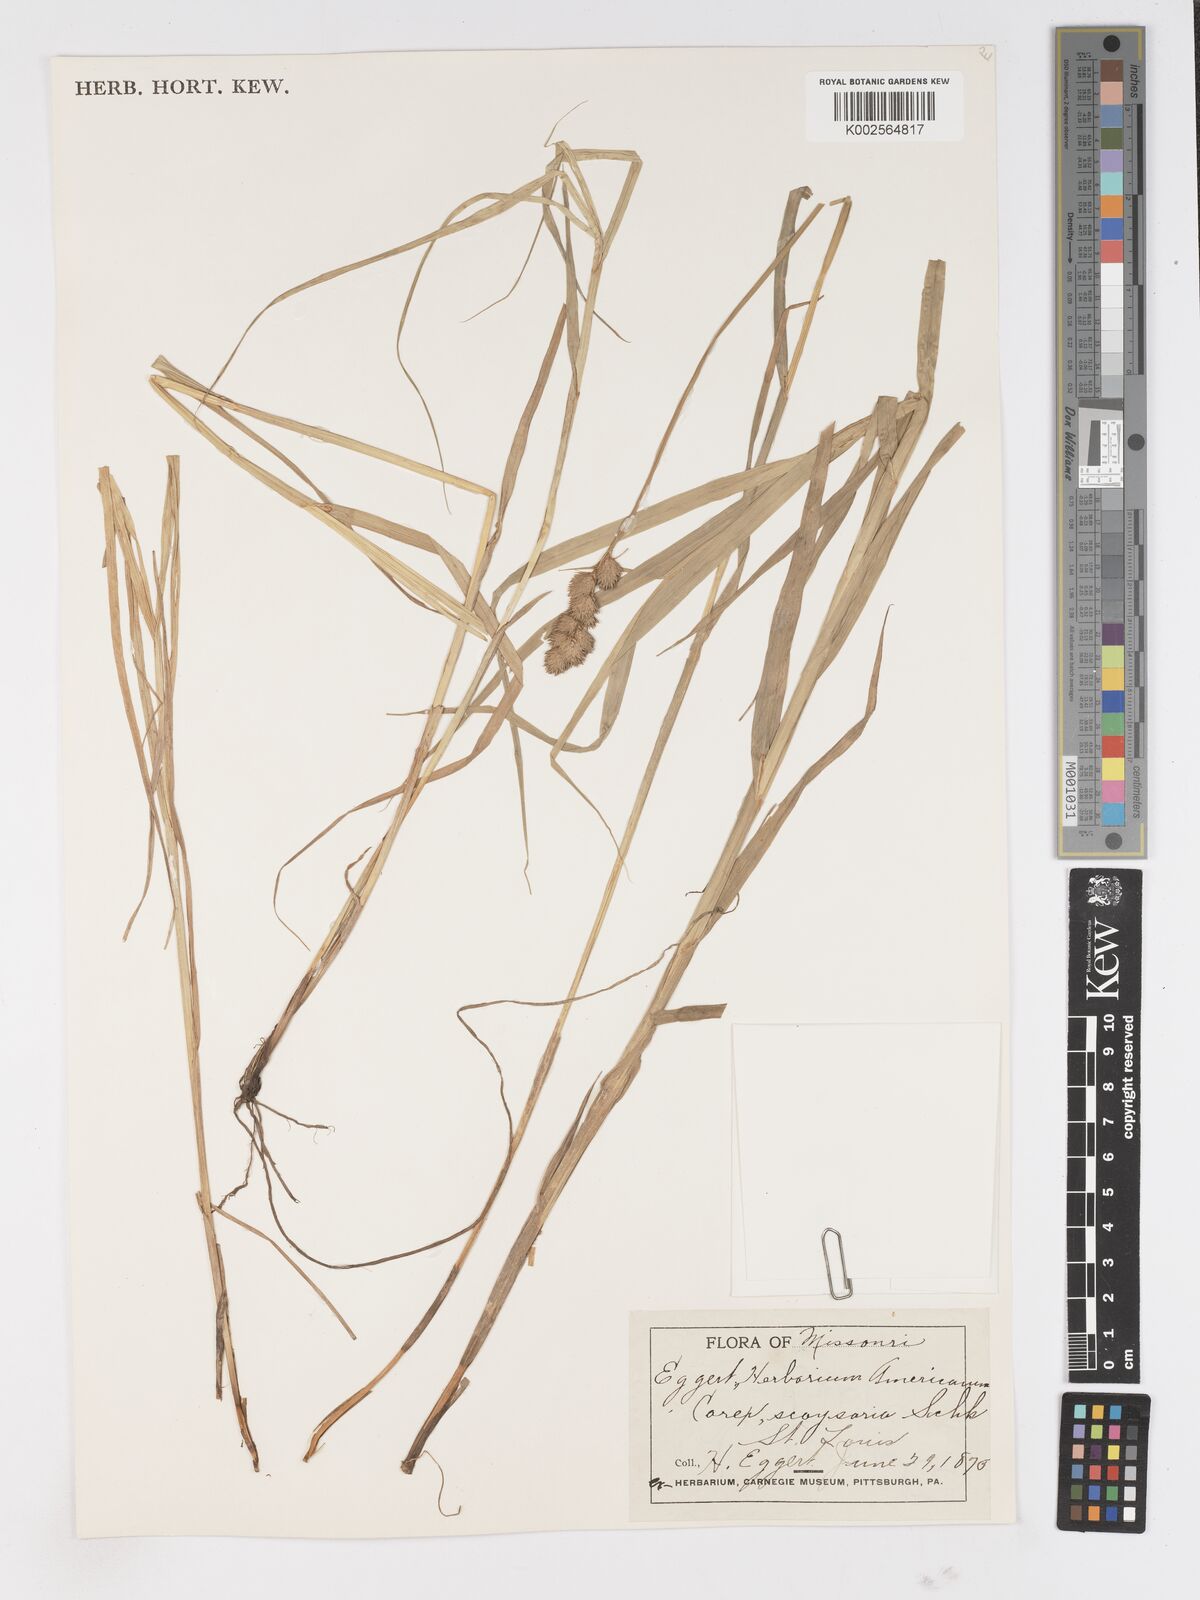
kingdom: Plantae
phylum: Tracheophyta
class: Liliopsida
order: Poales
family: Cyperaceae
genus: Carex
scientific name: Carex
